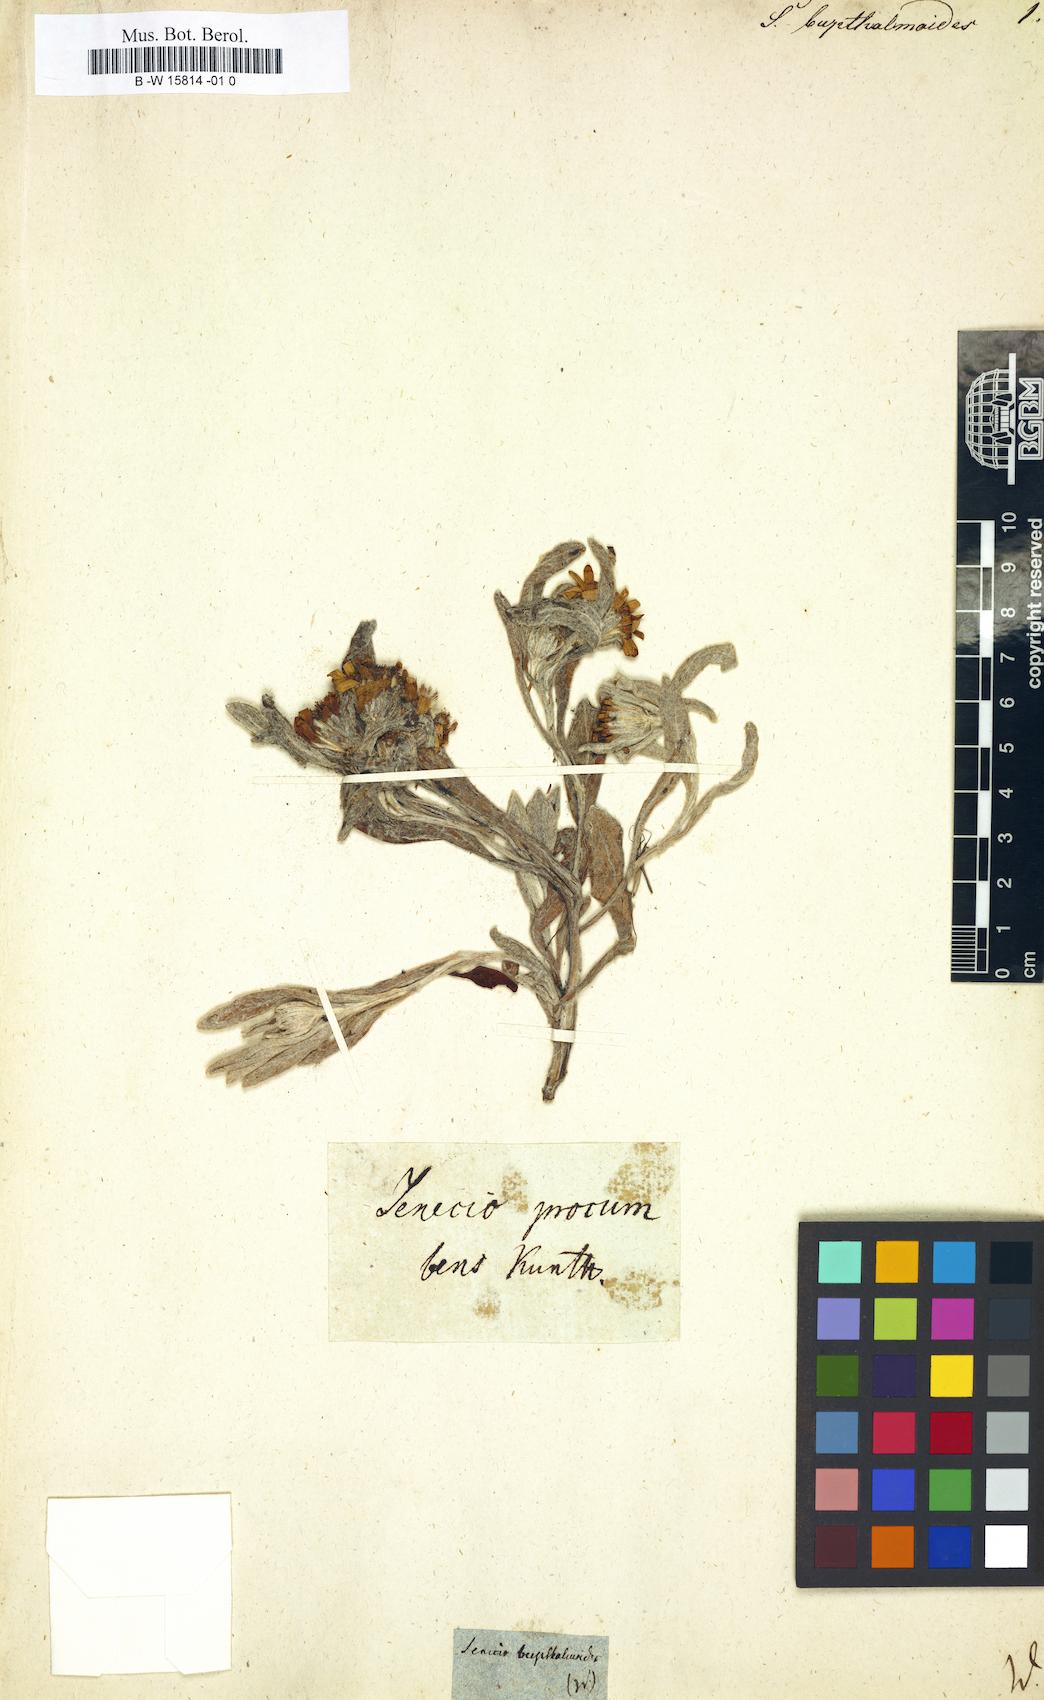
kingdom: Plantae
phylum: Tracheophyta
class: Magnoliopsida
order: Asterales
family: Asteraceae
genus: Senecio
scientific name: Senecio
